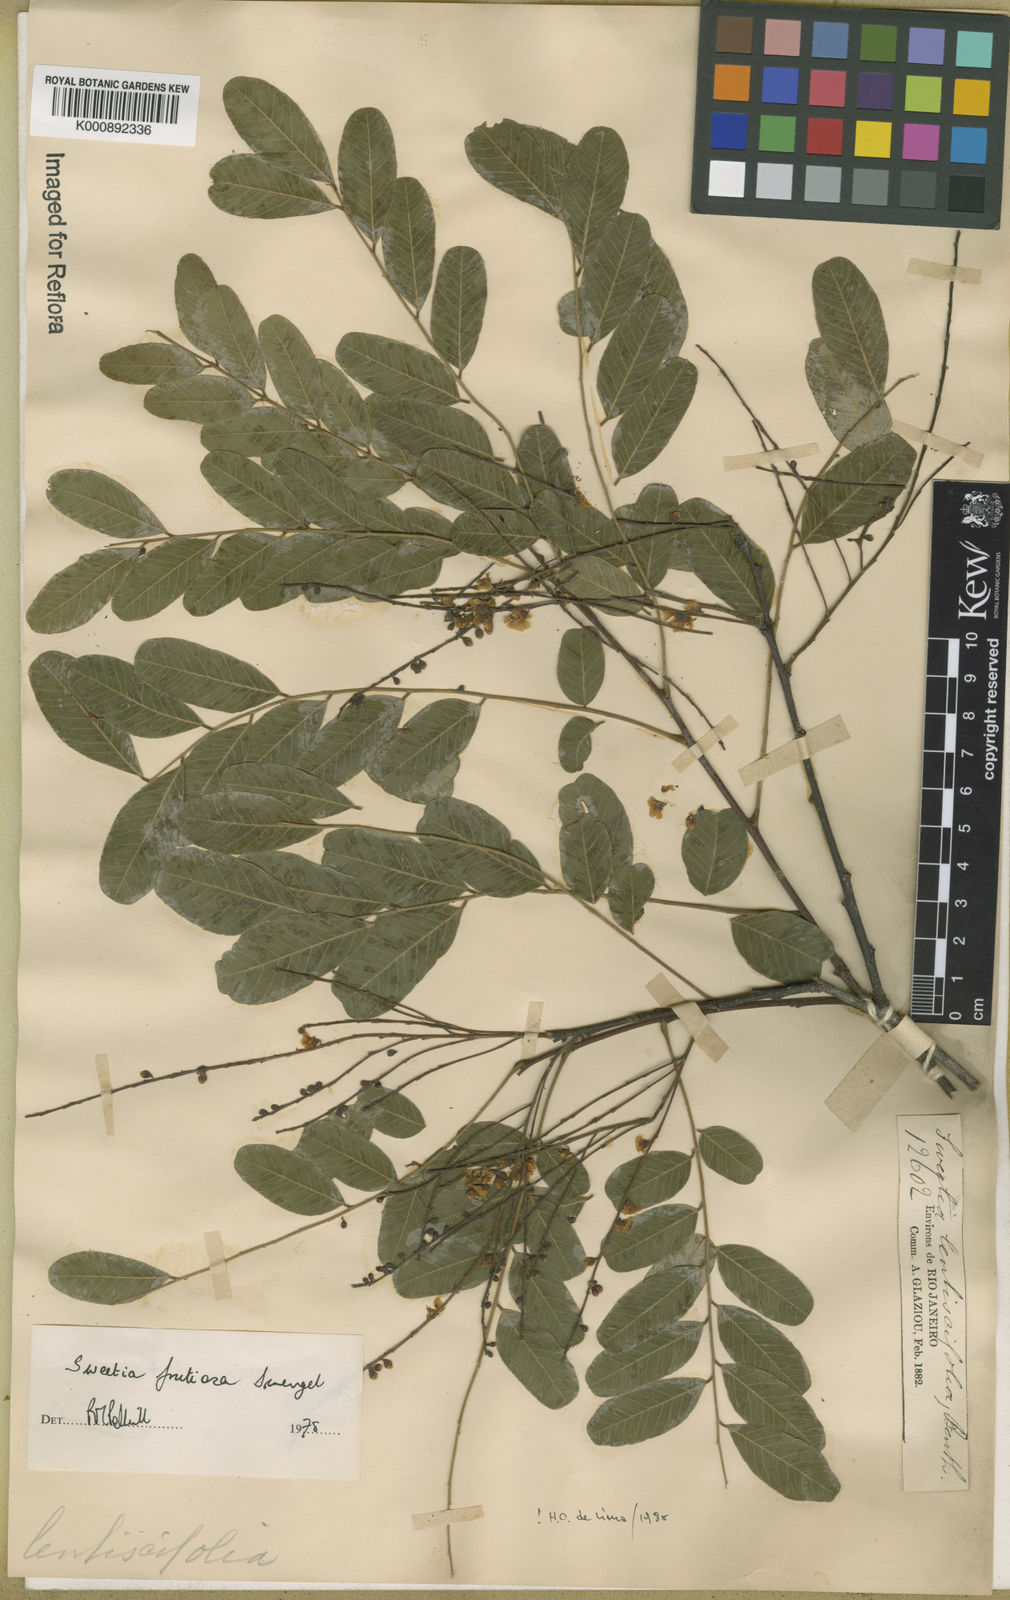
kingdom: Plantae
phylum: Tracheophyta
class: Magnoliopsida
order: Fabales
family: Fabaceae
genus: Sweetia
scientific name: Sweetia
